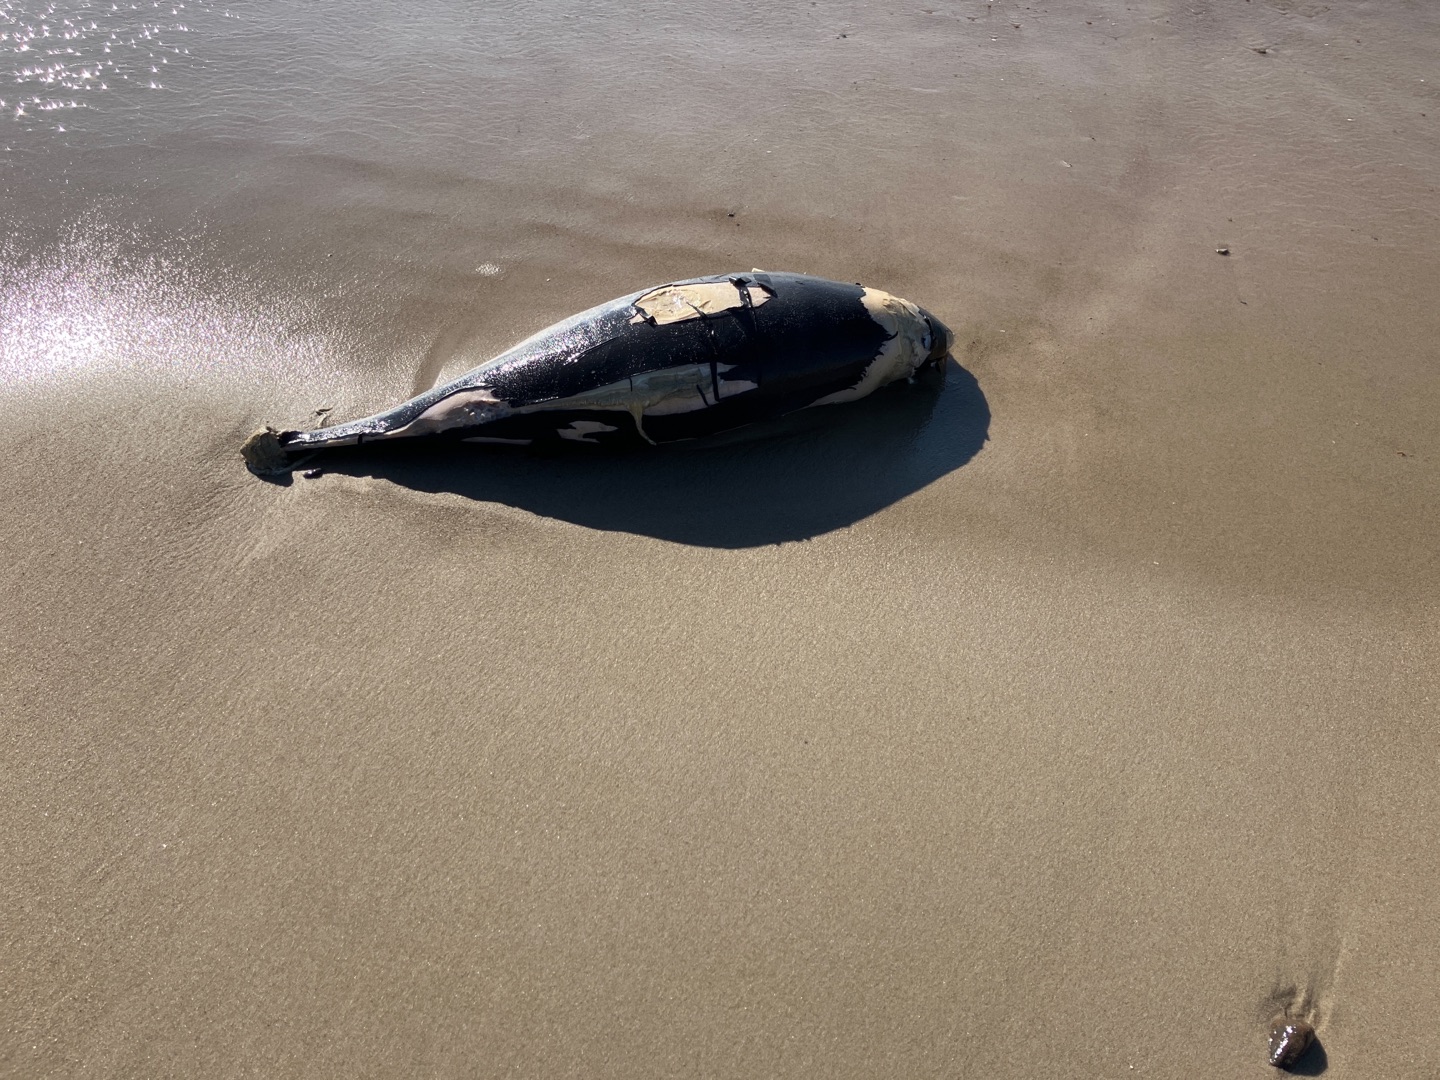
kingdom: Animalia
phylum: Chordata
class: Mammalia
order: Cetacea
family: Phocoenidae
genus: Phocoena
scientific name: Phocoena phocoena
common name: Marsvin
